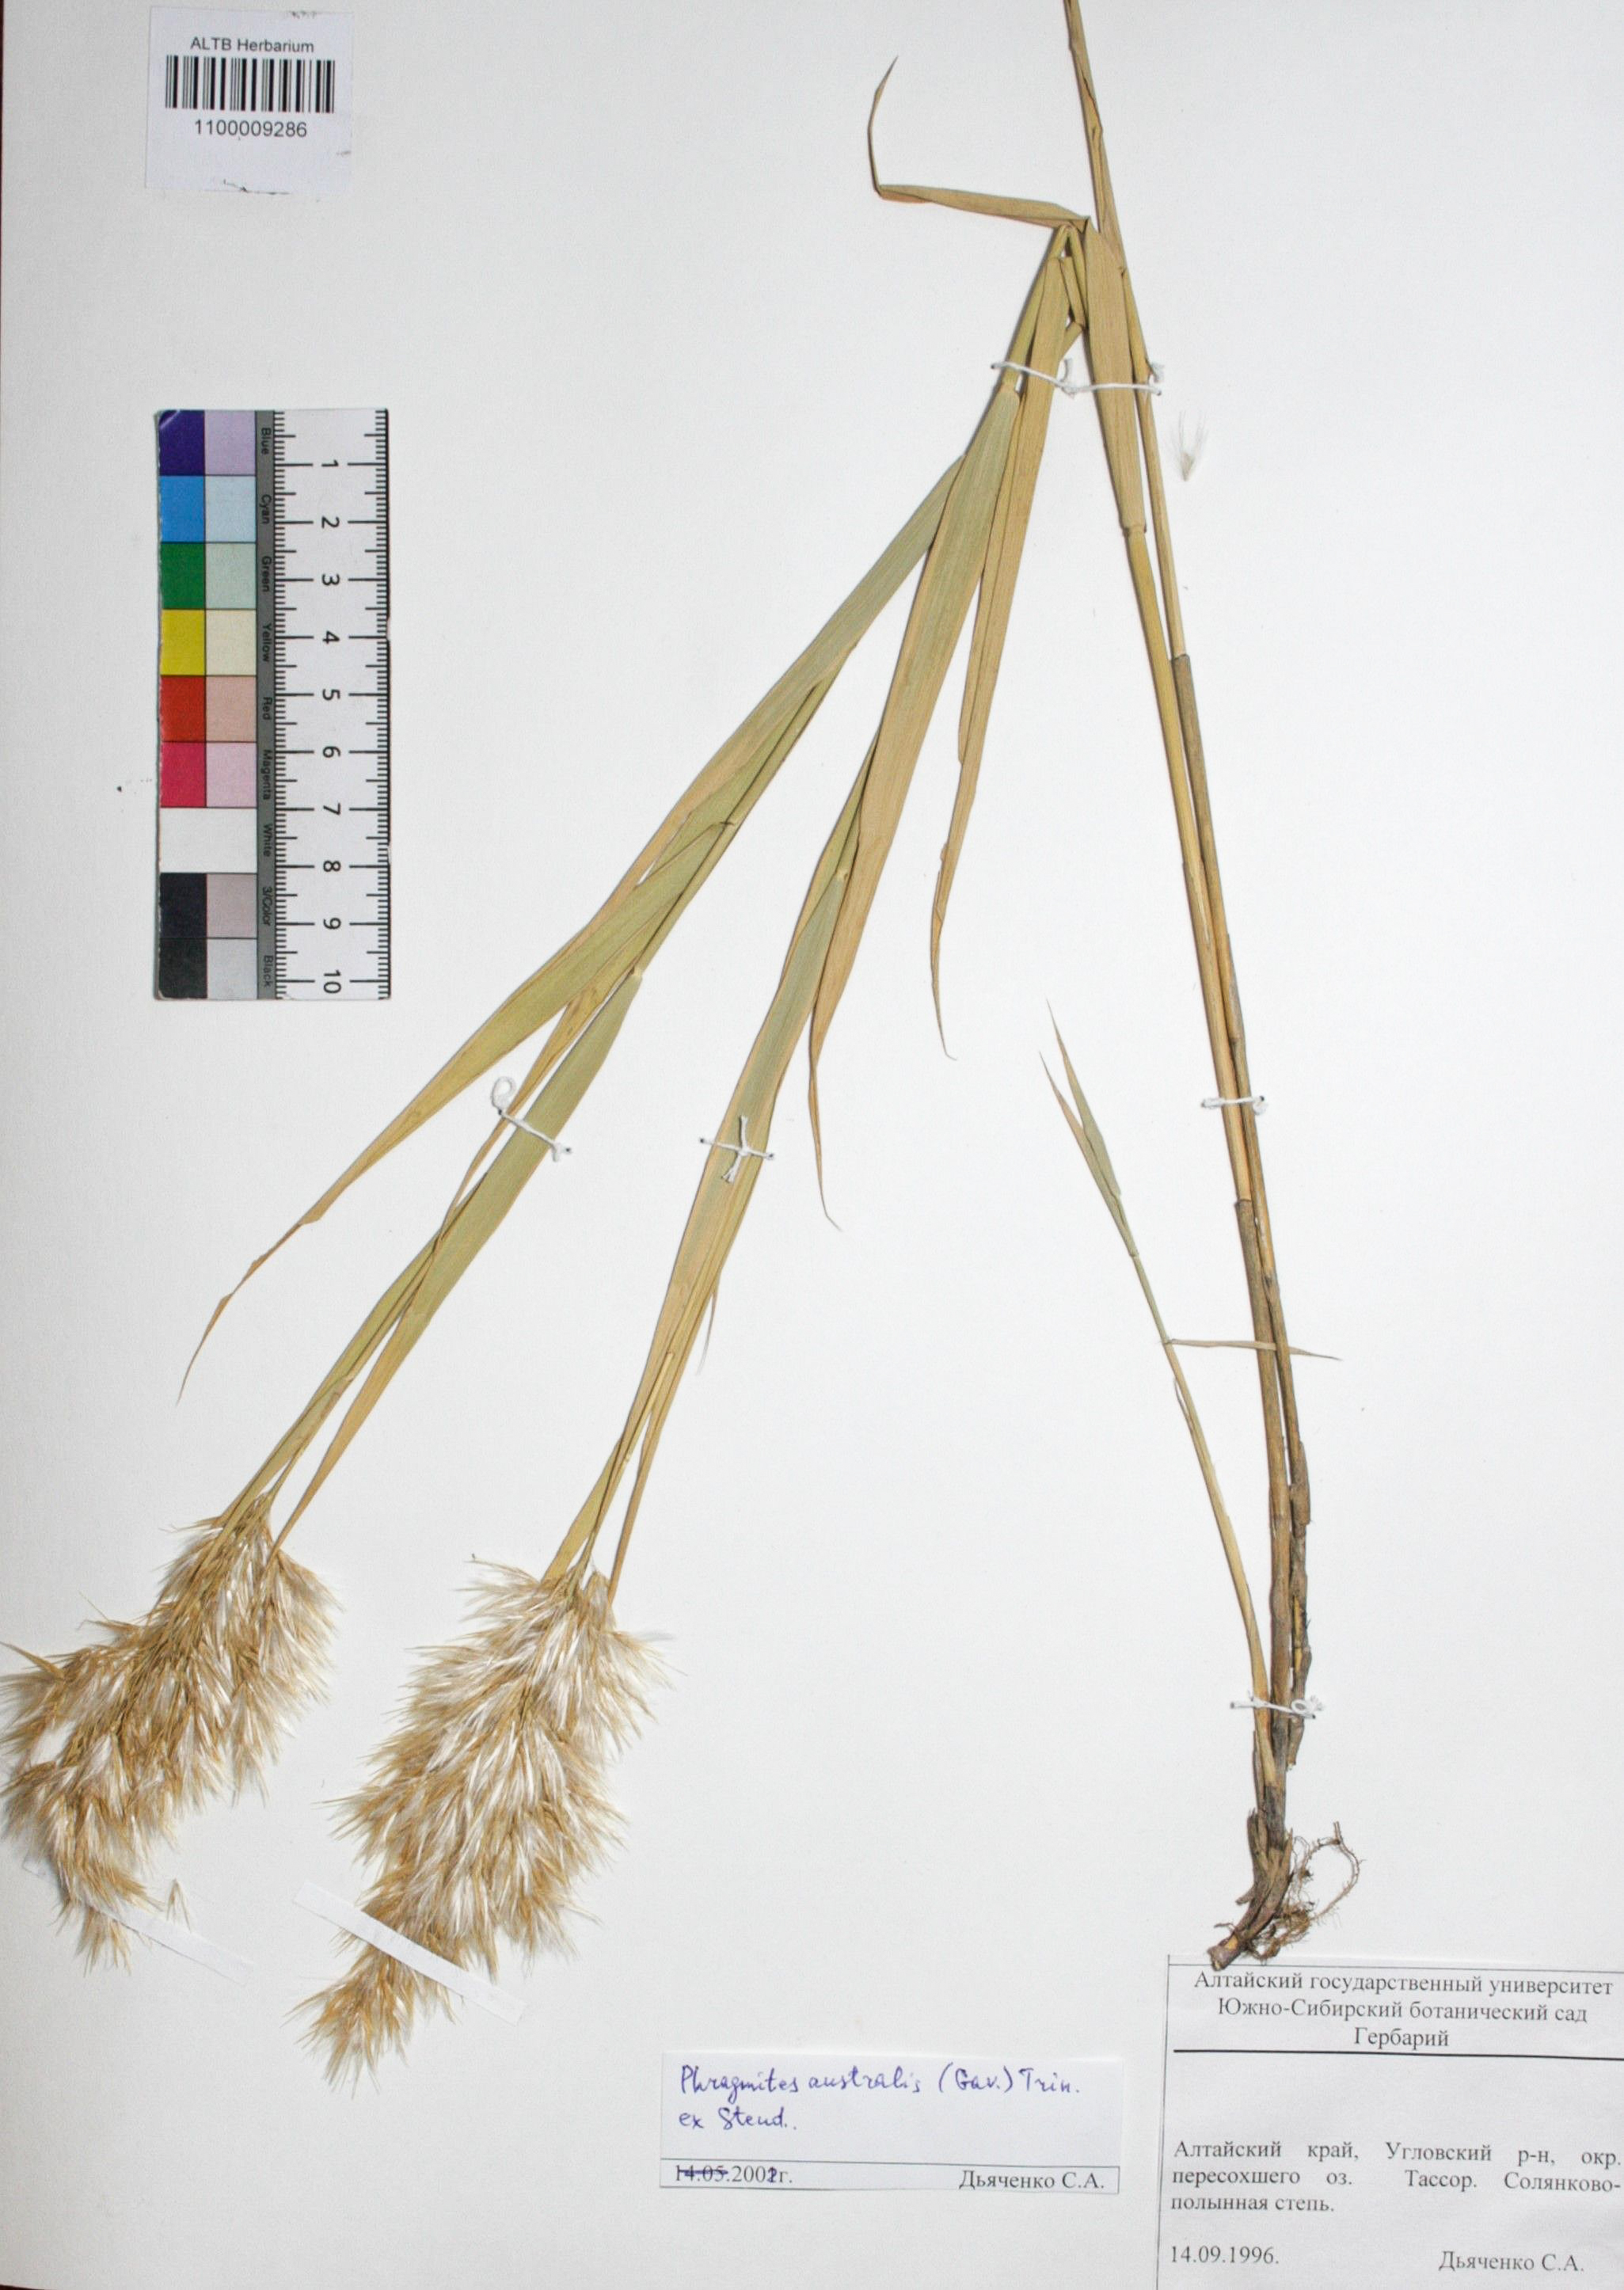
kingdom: Plantae
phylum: Tracheophyta
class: Liliopsida
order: Poales
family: Poaceae
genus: Phragmites
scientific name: Phragmites australis
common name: Common reed
